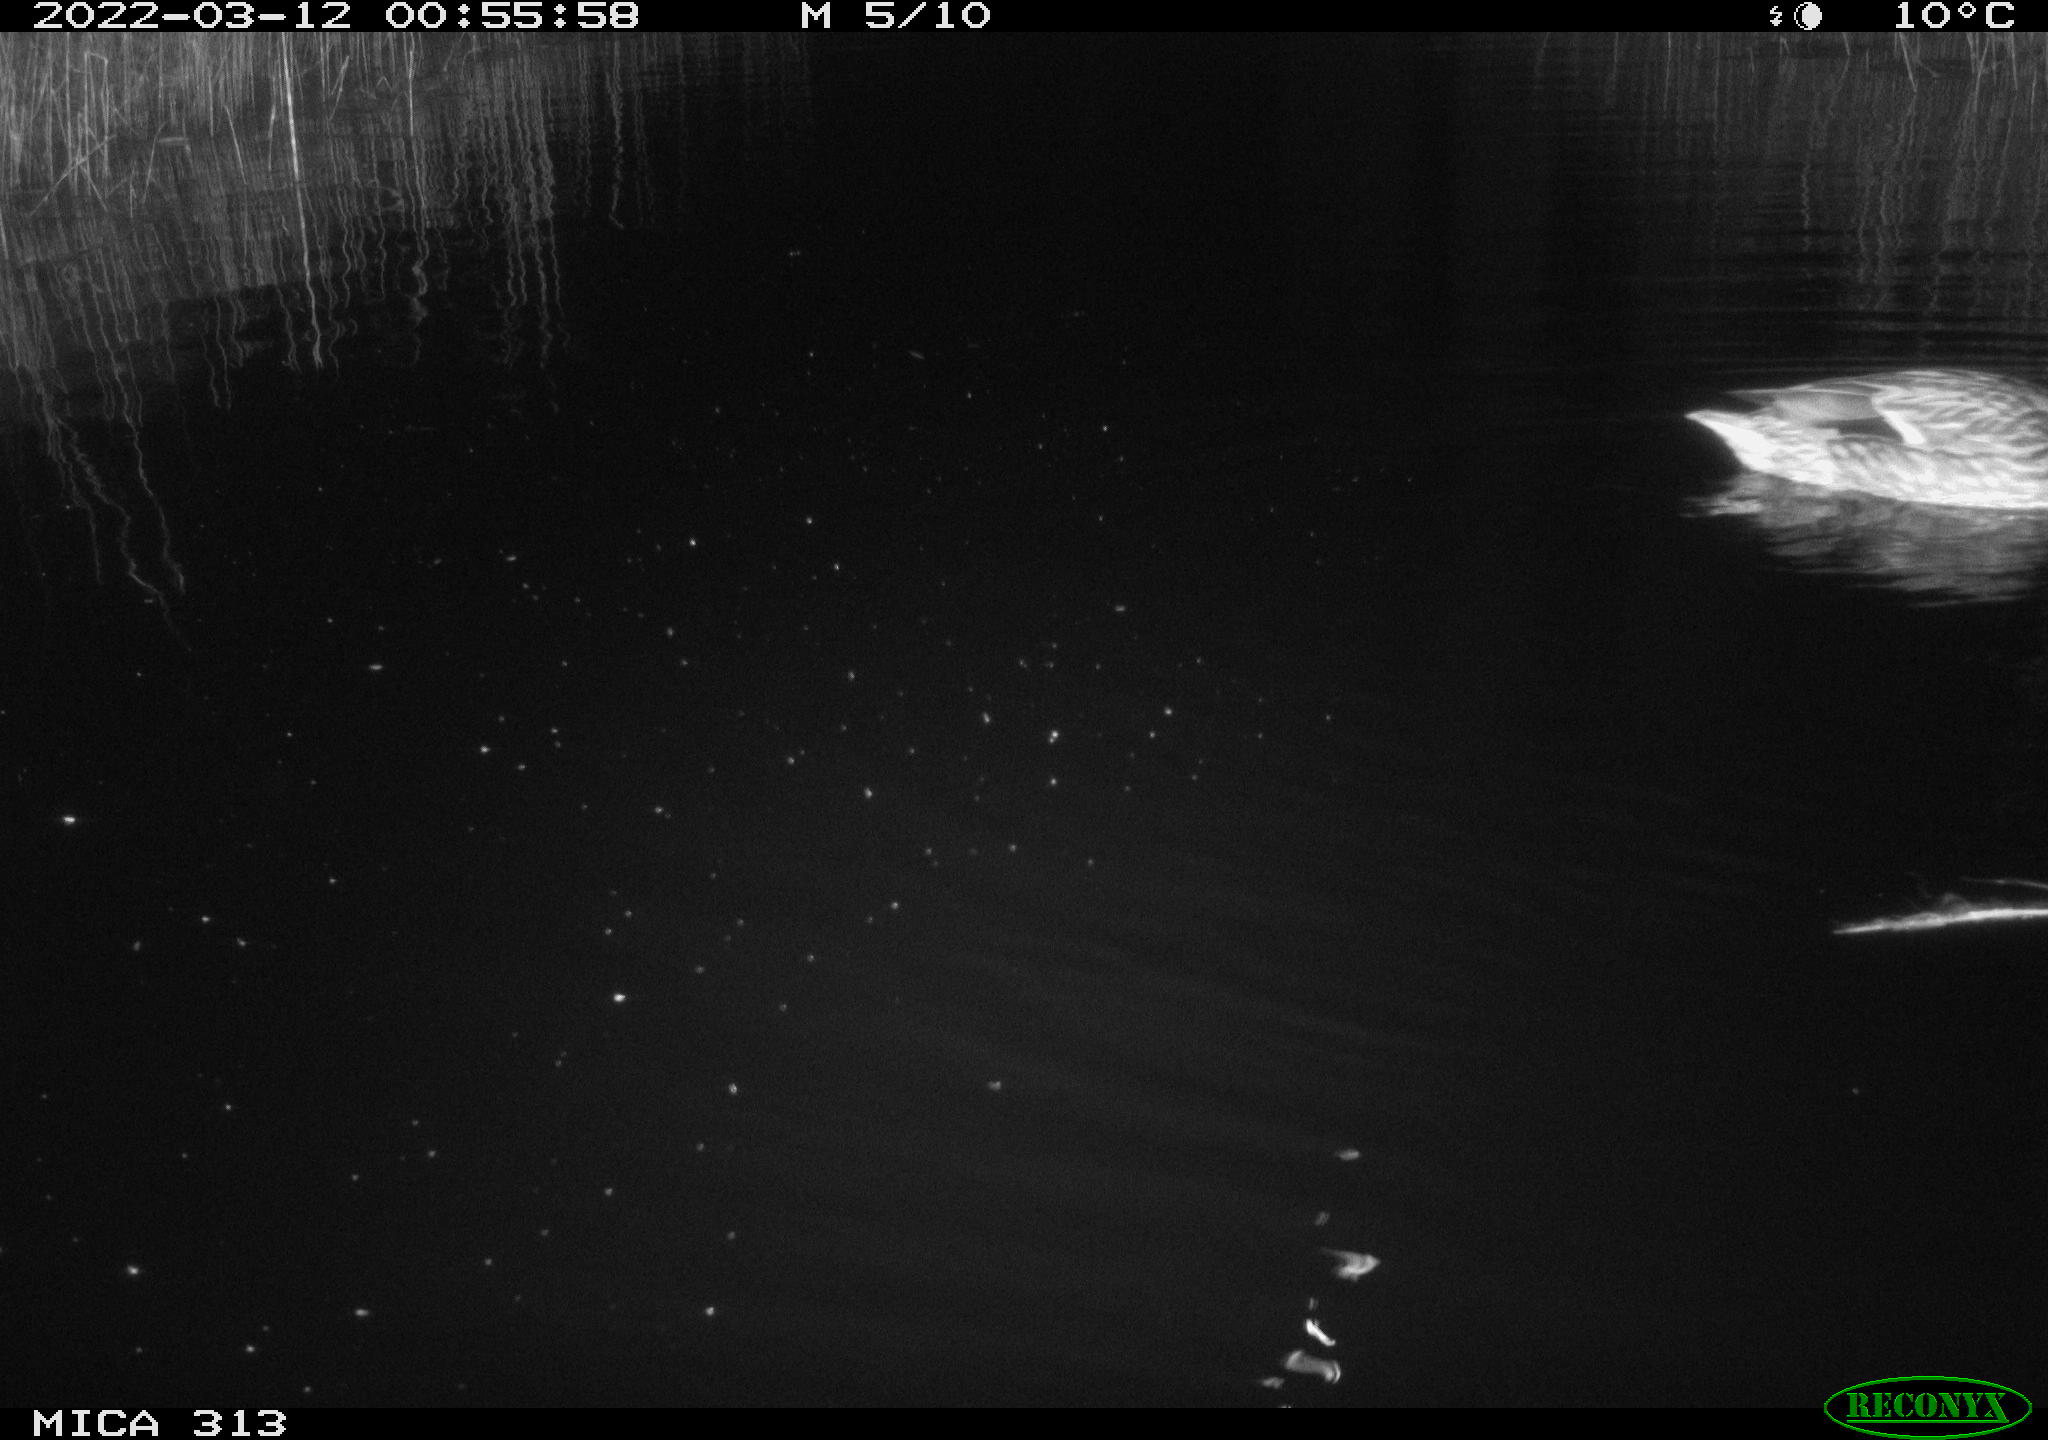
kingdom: Animalia
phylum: Chordata
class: Aves
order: Anseriformes
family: Anatidae
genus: Mareca
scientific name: Mareca strepera
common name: Gadwall
